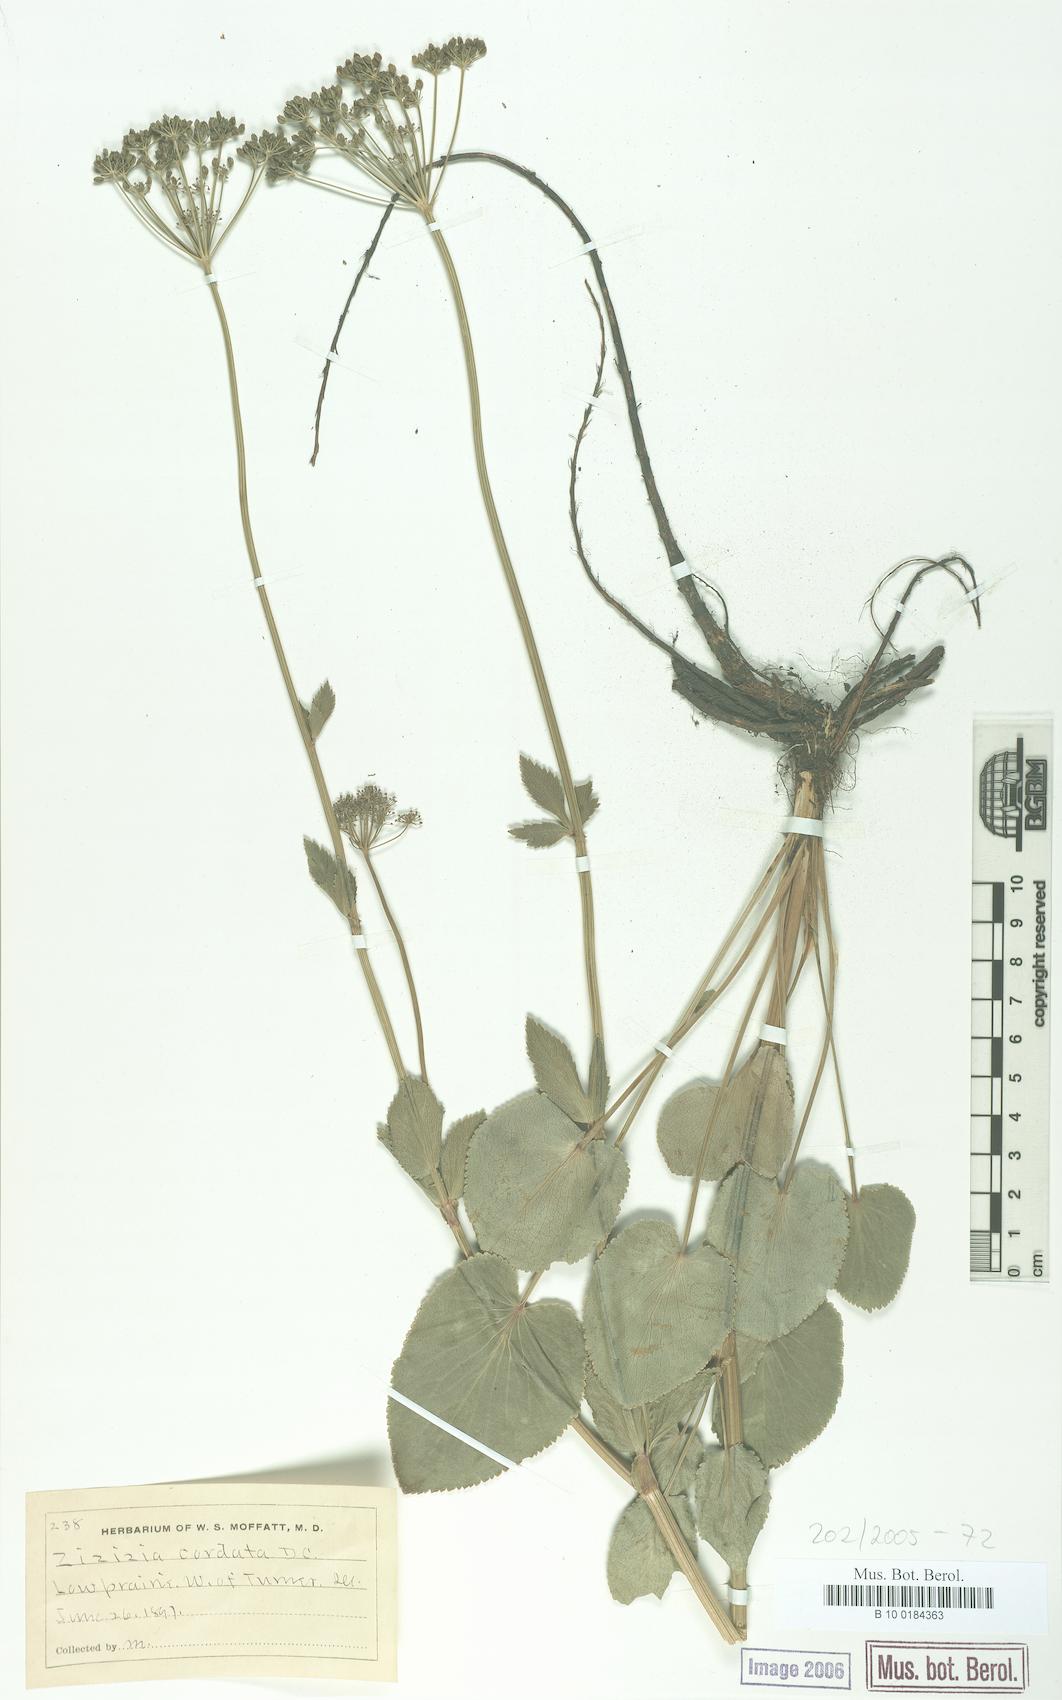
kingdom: Plantae
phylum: Tracheophyta
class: Magnoliopsida
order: Apiales
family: Apiaceae
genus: Zizia
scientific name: Zizia aptera
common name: Heart-leaved alexanders
